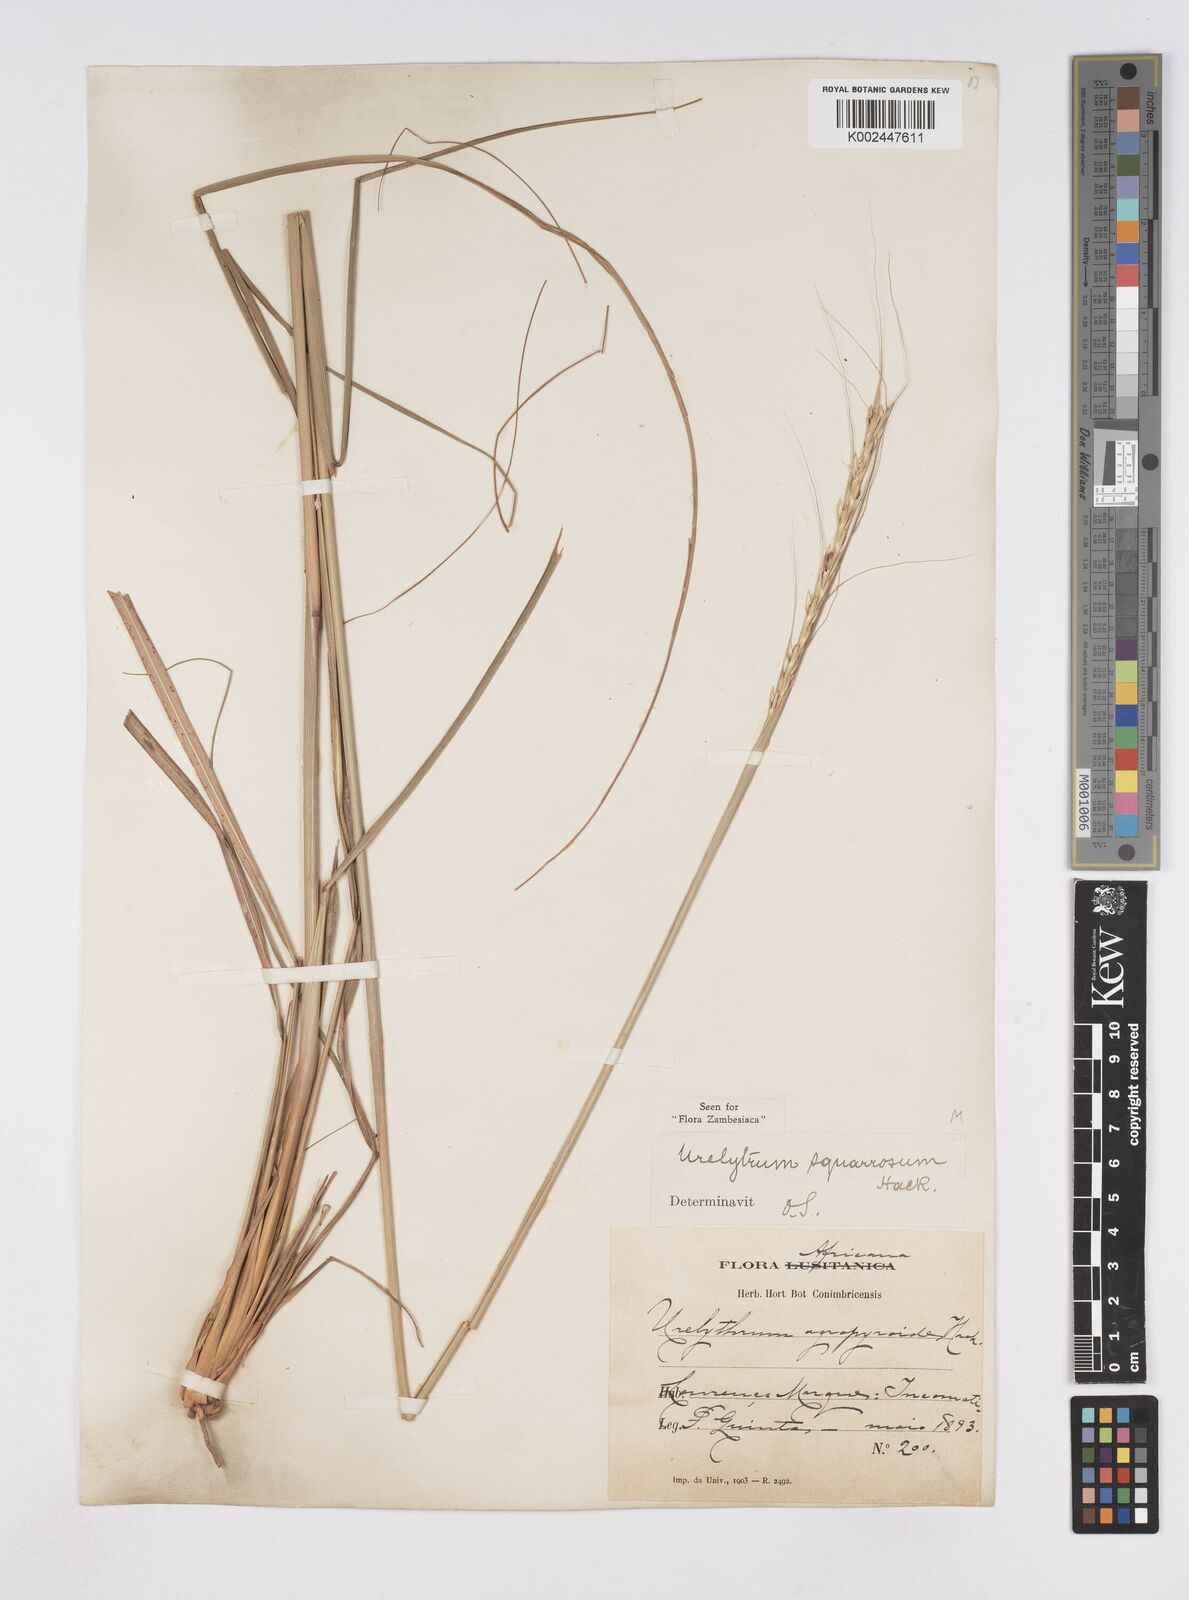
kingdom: Plantae
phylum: Tracheophyta
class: Liliopsida
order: Poales
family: Poaceae
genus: Urelytrum
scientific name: Urelytrum agropyroides
